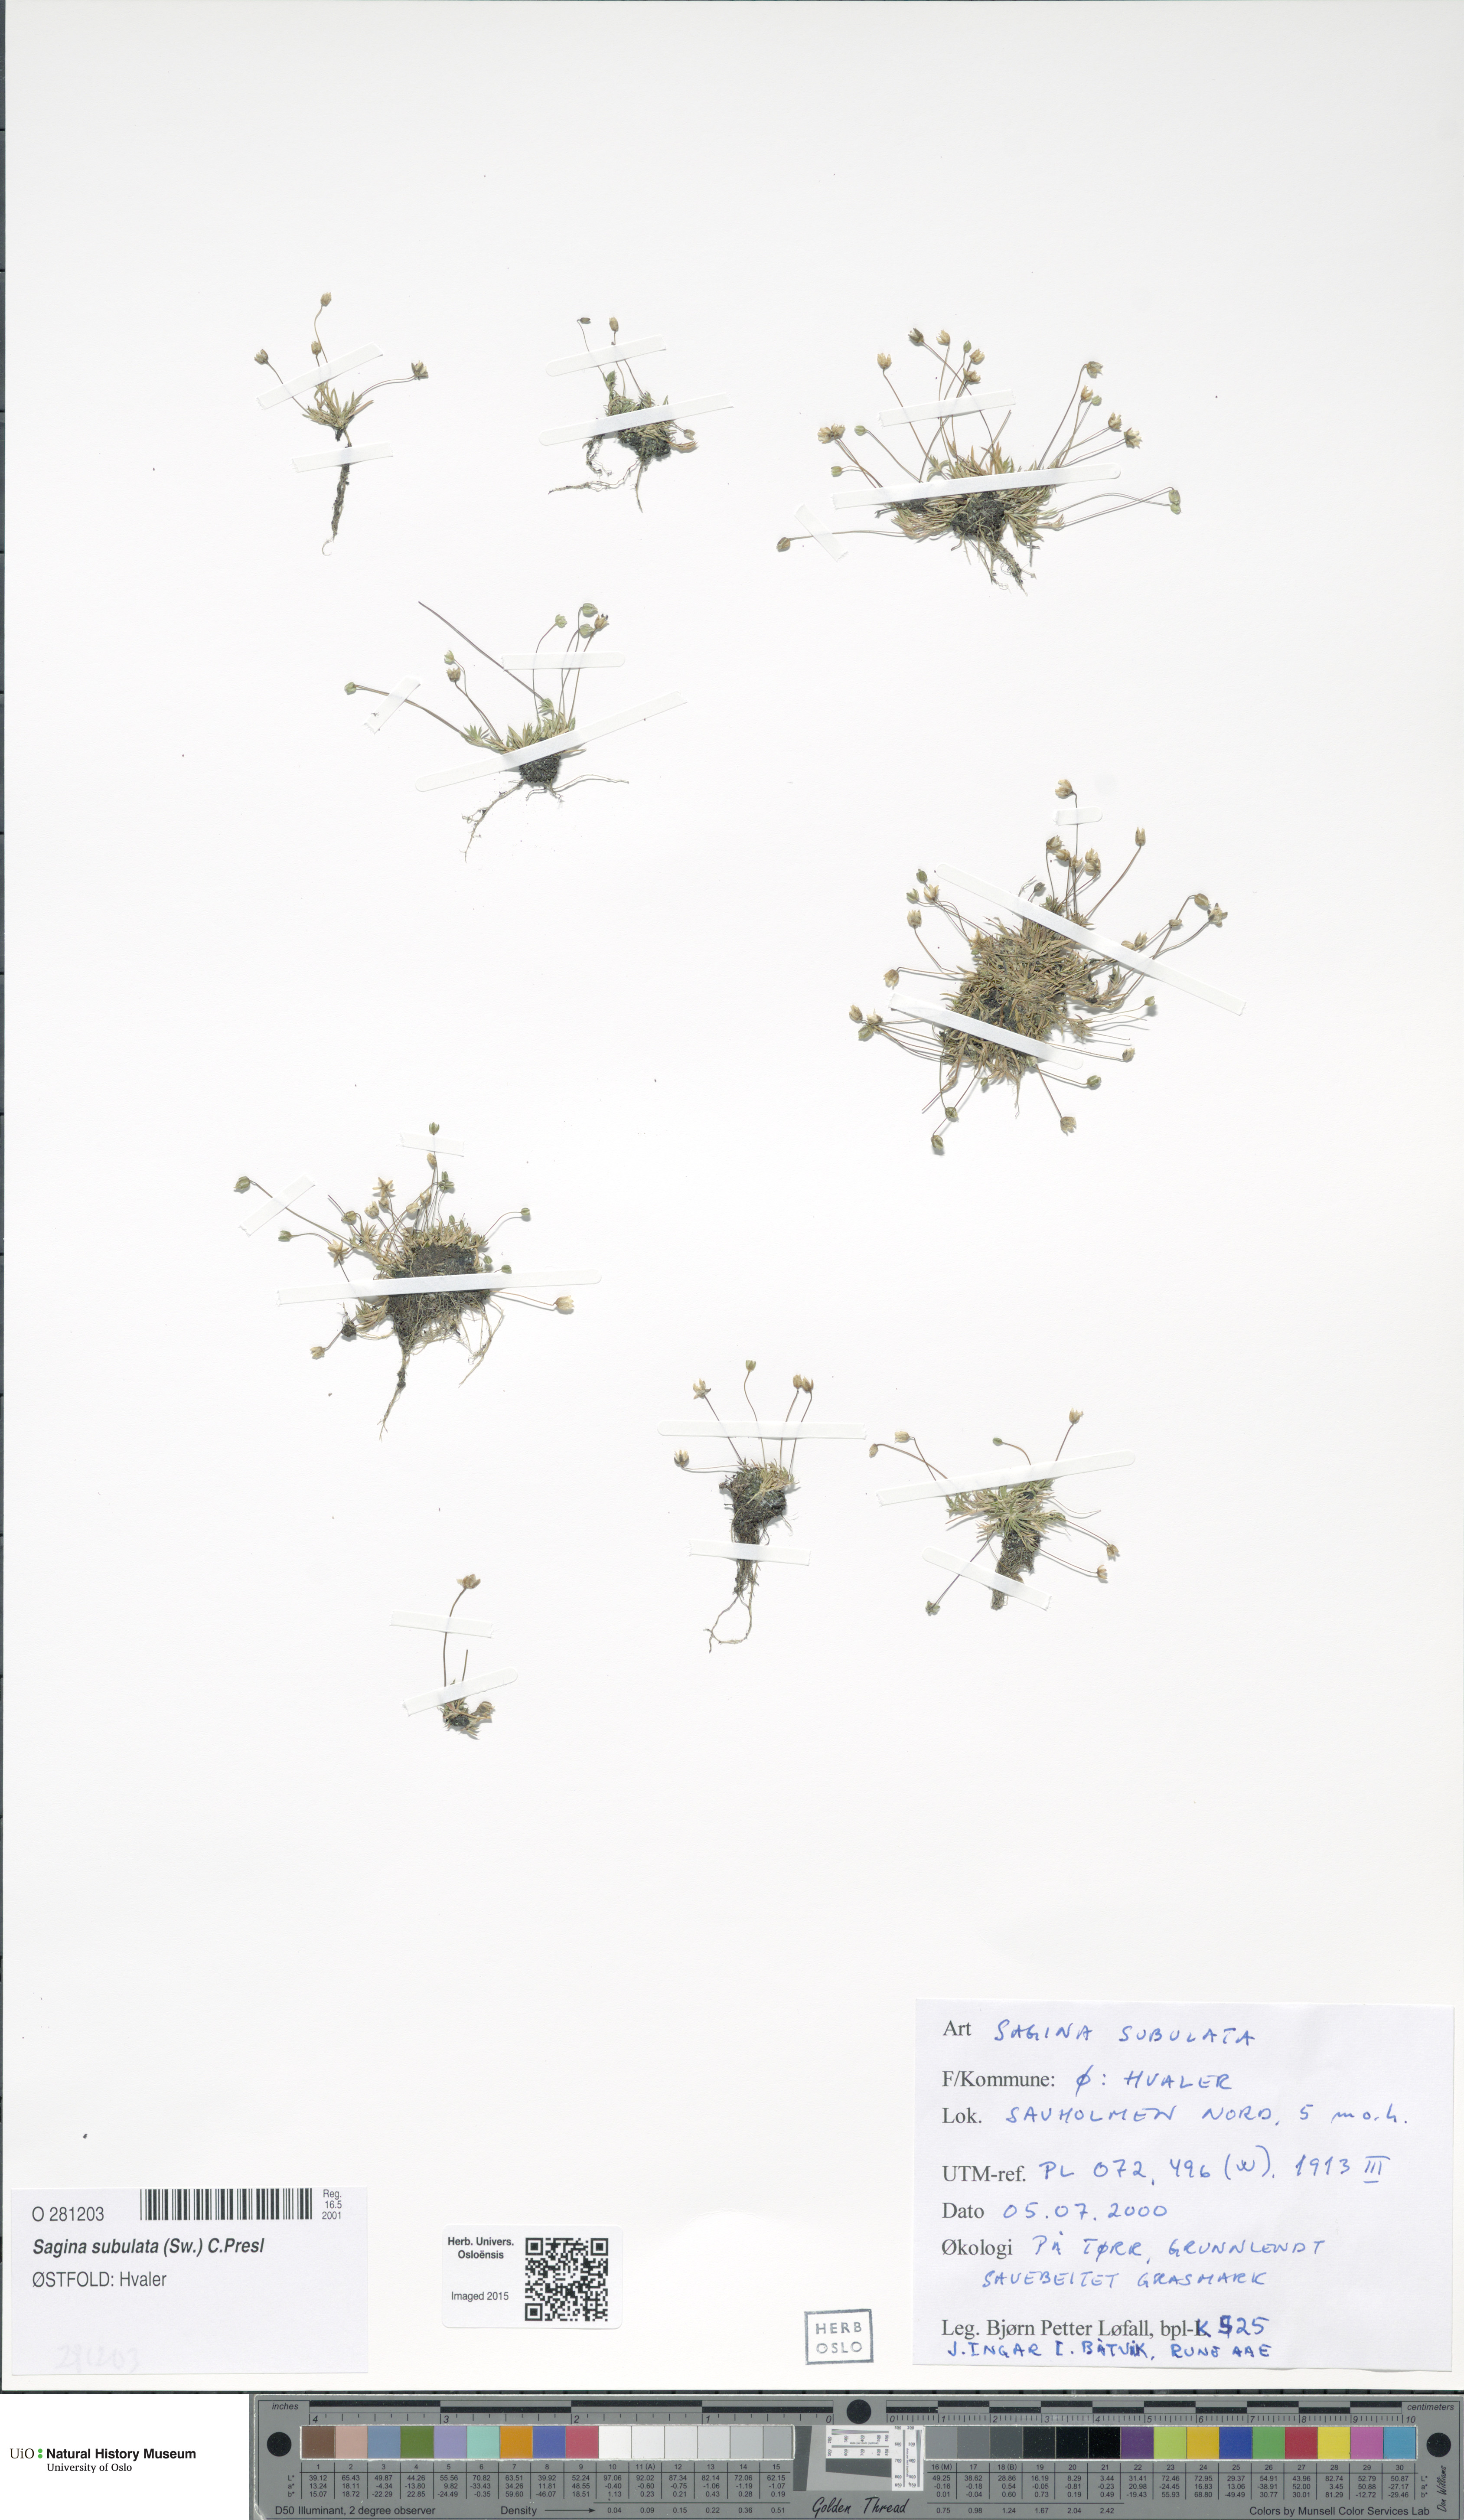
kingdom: Plantae
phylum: Tracheophyta
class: Magnoliopsida
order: Caryophyllales
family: Caryophyllaceae
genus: Sagina
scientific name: Sagina alexandrae
